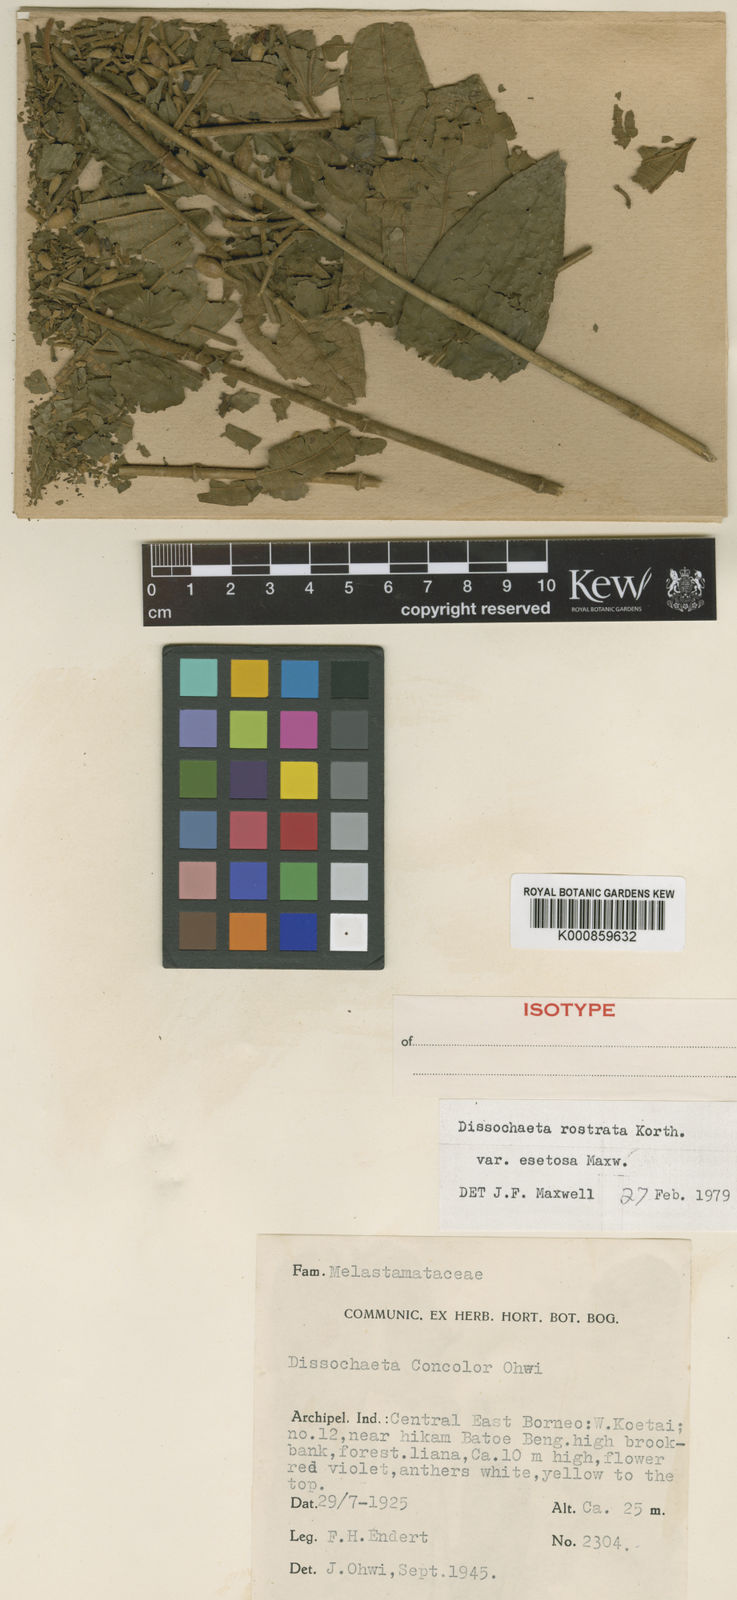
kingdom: Plantae
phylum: Tracheophyta
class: Magnoliopsida
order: Myrtales
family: Melastomataceae
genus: Dissochaeta
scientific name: Dissochaeta densiflora
